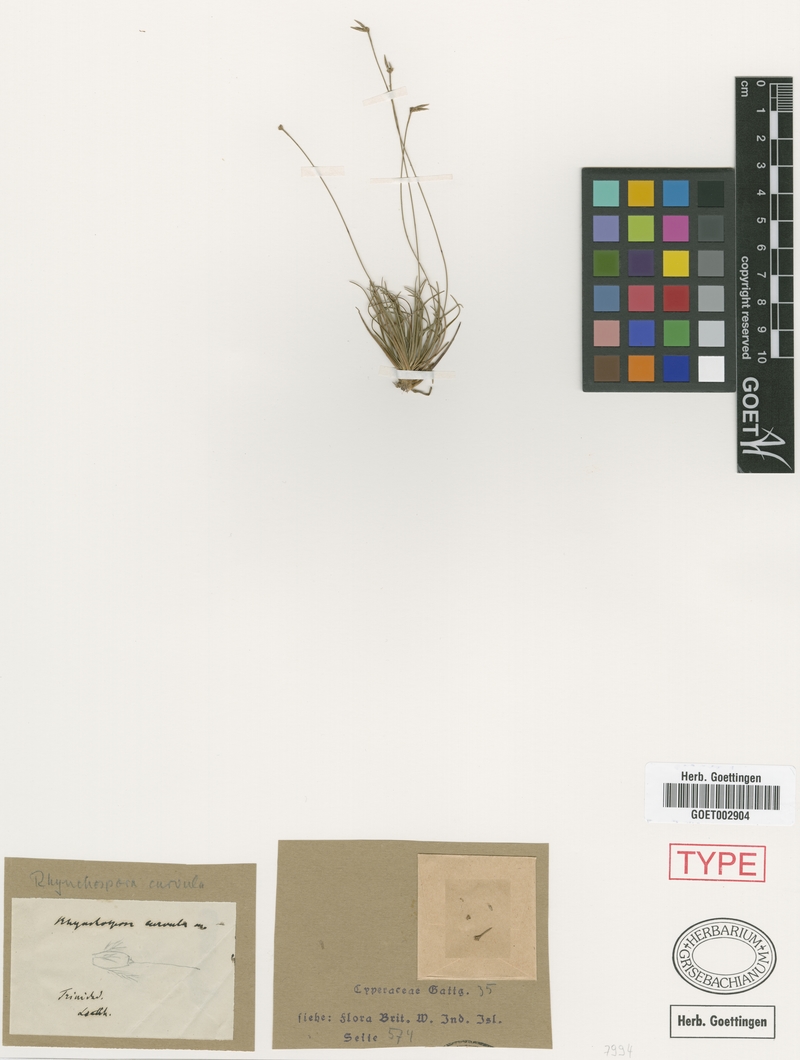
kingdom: Plantae
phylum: Tracheophyta
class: Liliopsida
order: Poales
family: Cyperaceae
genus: Rhynchospora
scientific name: Rhynchospora curvula
